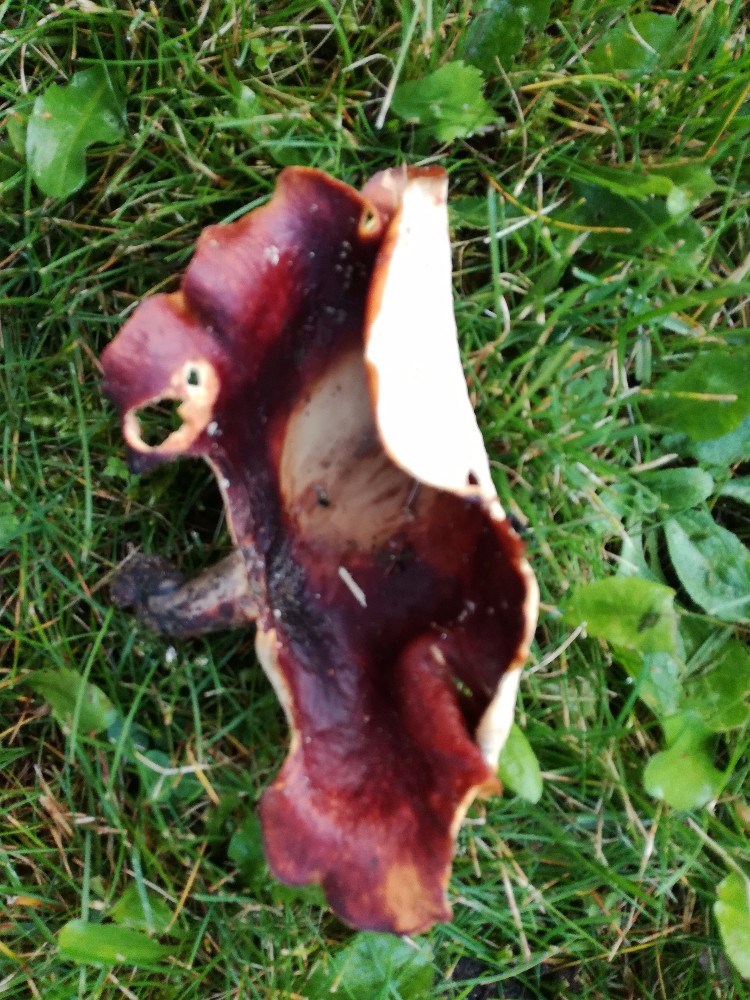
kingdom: Fungi
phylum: Basidiomycota
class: Agaricomycetes
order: Polyporales
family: Polyporaceae
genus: Picipes
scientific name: Picipes badius
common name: kastaniebrun stilkporesvamp
